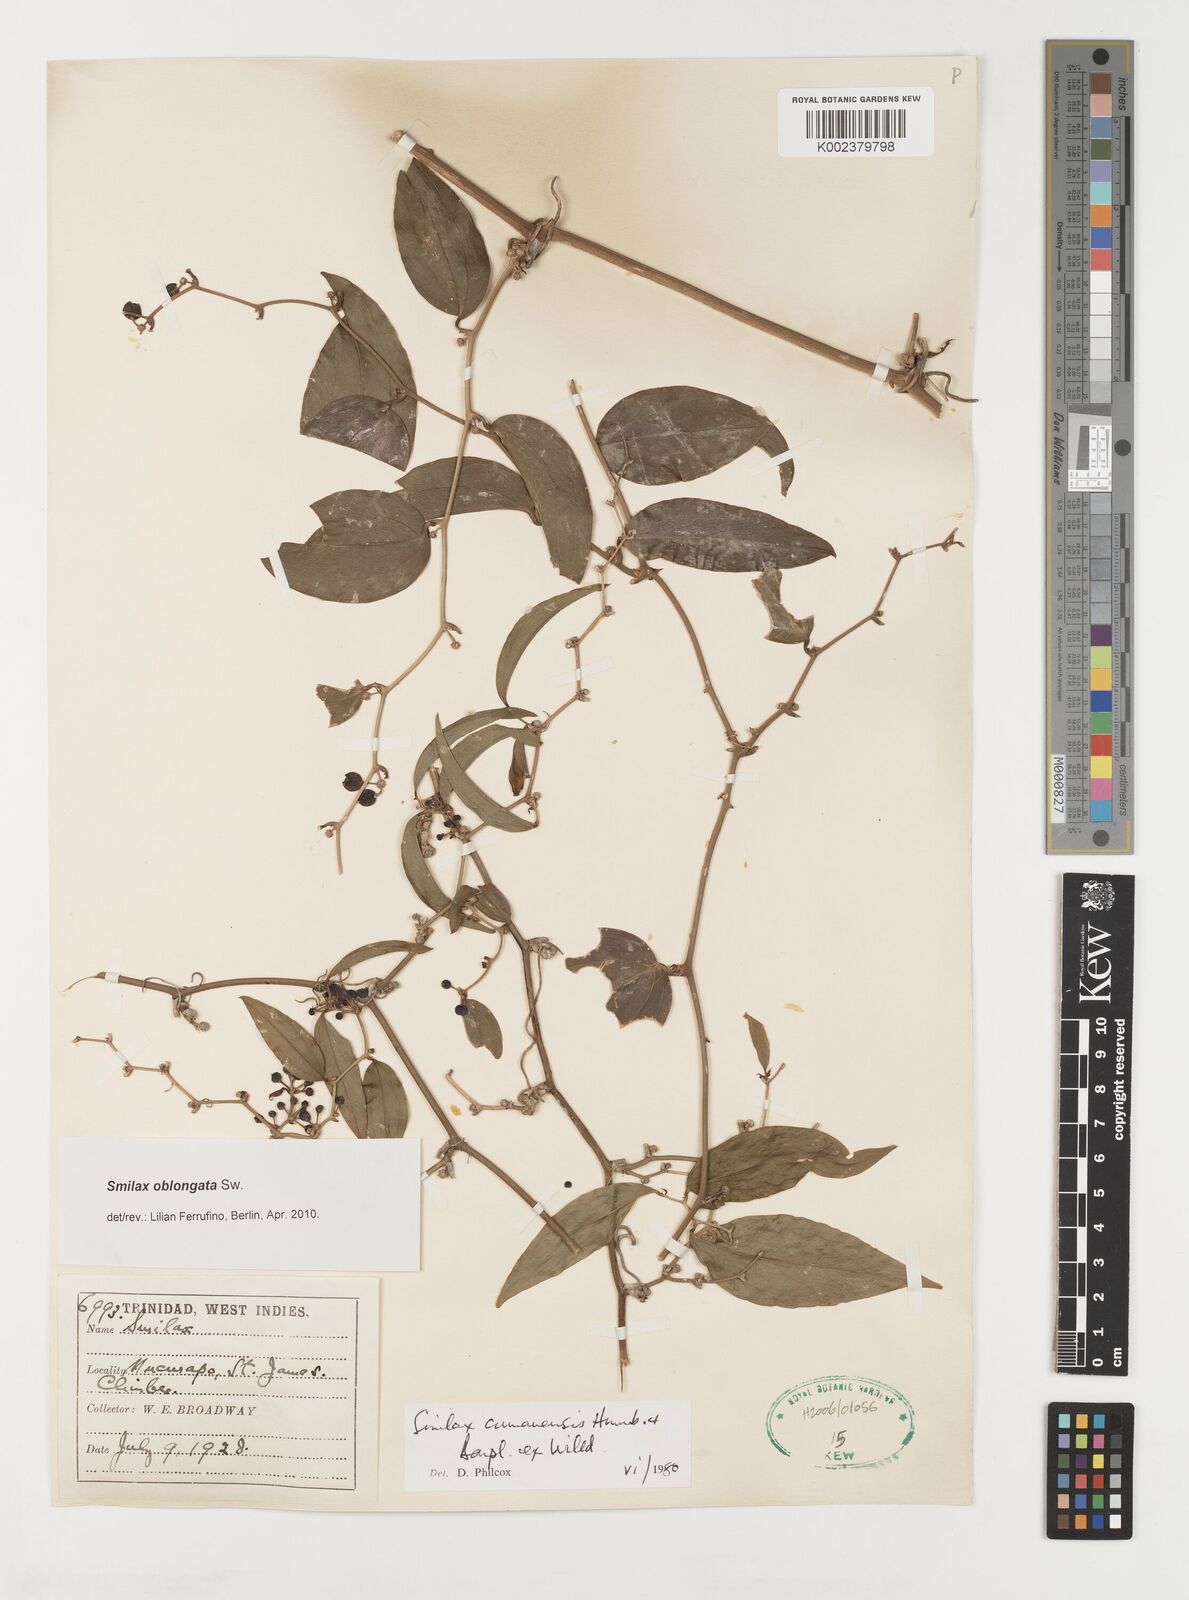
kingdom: Plantae
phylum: Tracheophyta
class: Liliopsida
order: Liliales
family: Smilacaceae
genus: Smilax
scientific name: Smilax oblongata
